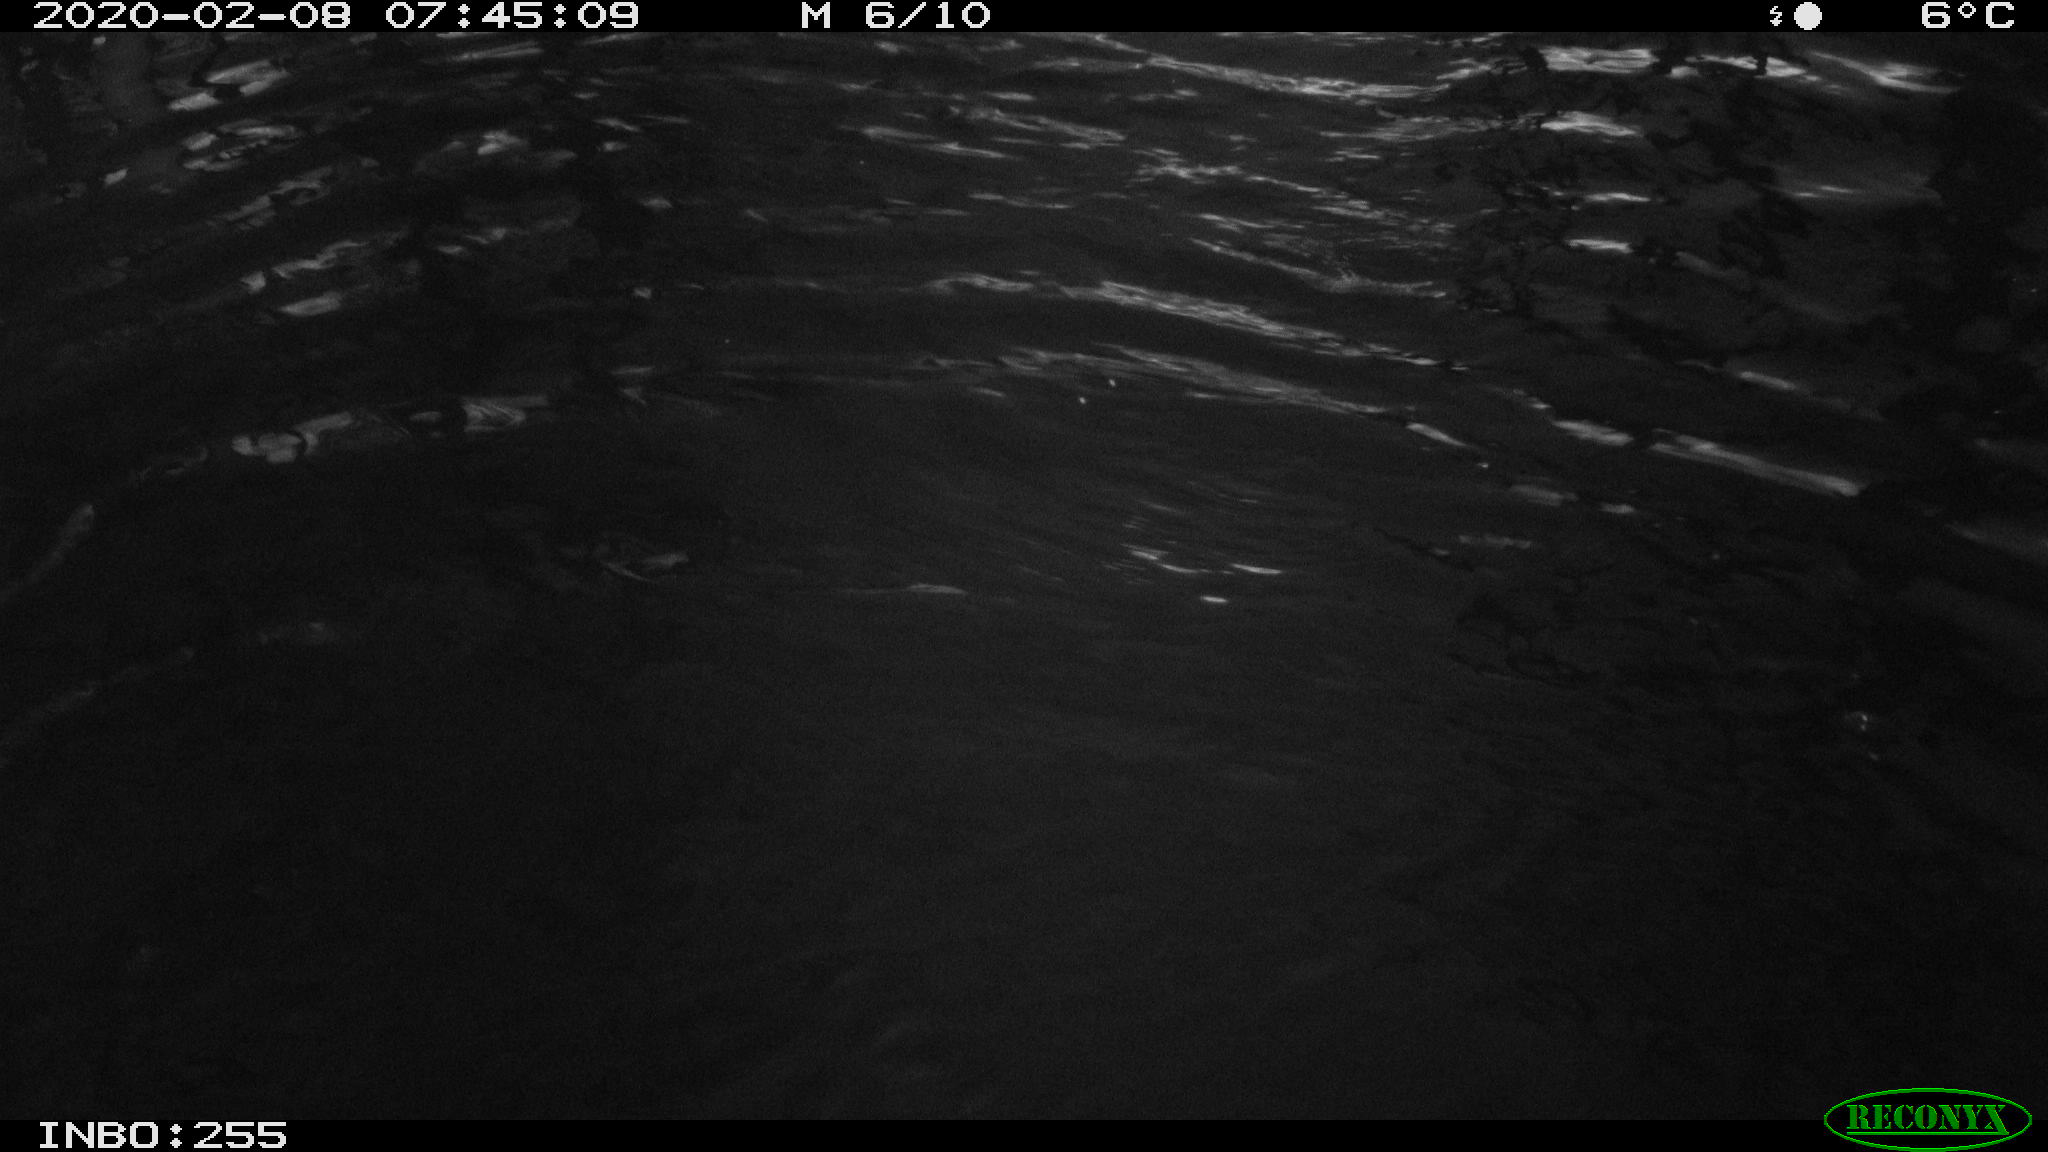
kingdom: Animalia
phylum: Chordata
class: Aves
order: Gruiformes
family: Rallidae
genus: Fulica
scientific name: Fulica atra
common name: Eurasian coot
